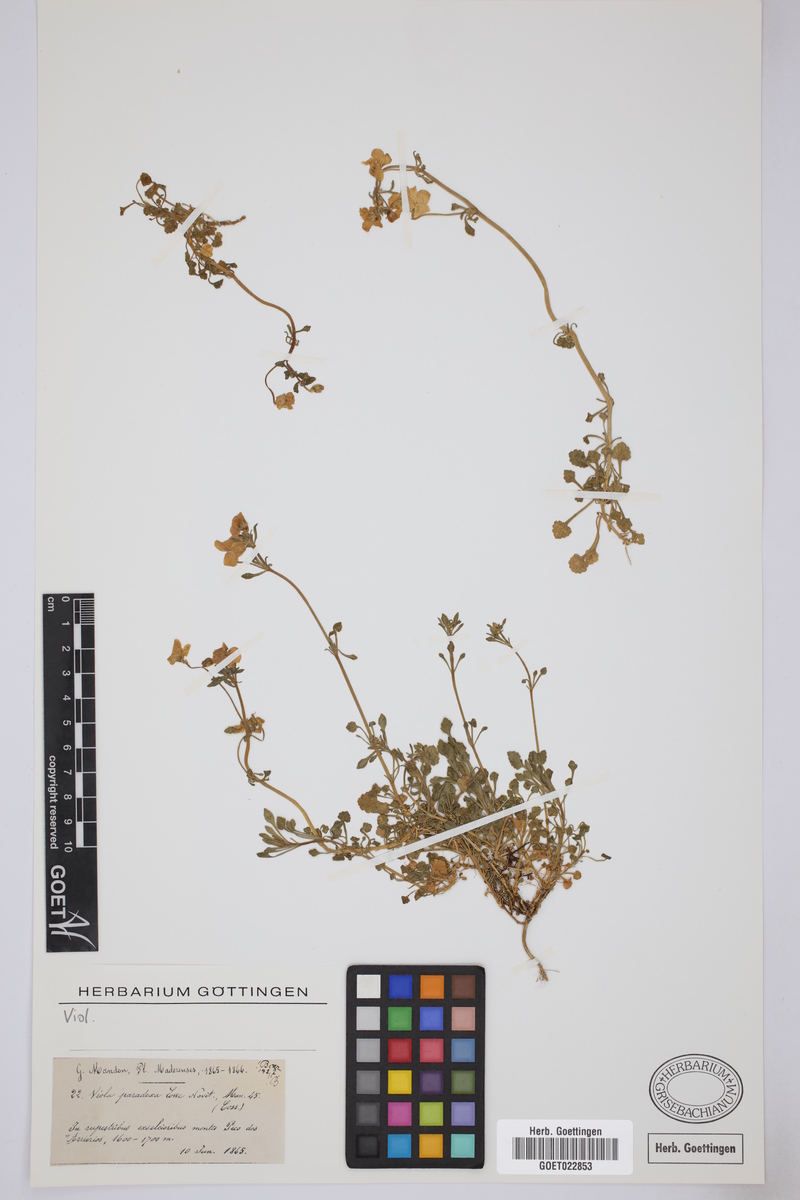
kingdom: Plantae
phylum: Tracheophyta
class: Magnoliopsida
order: Malpighiales
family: Violaceae
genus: Viola
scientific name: Viola odorata
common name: Sweet violet
